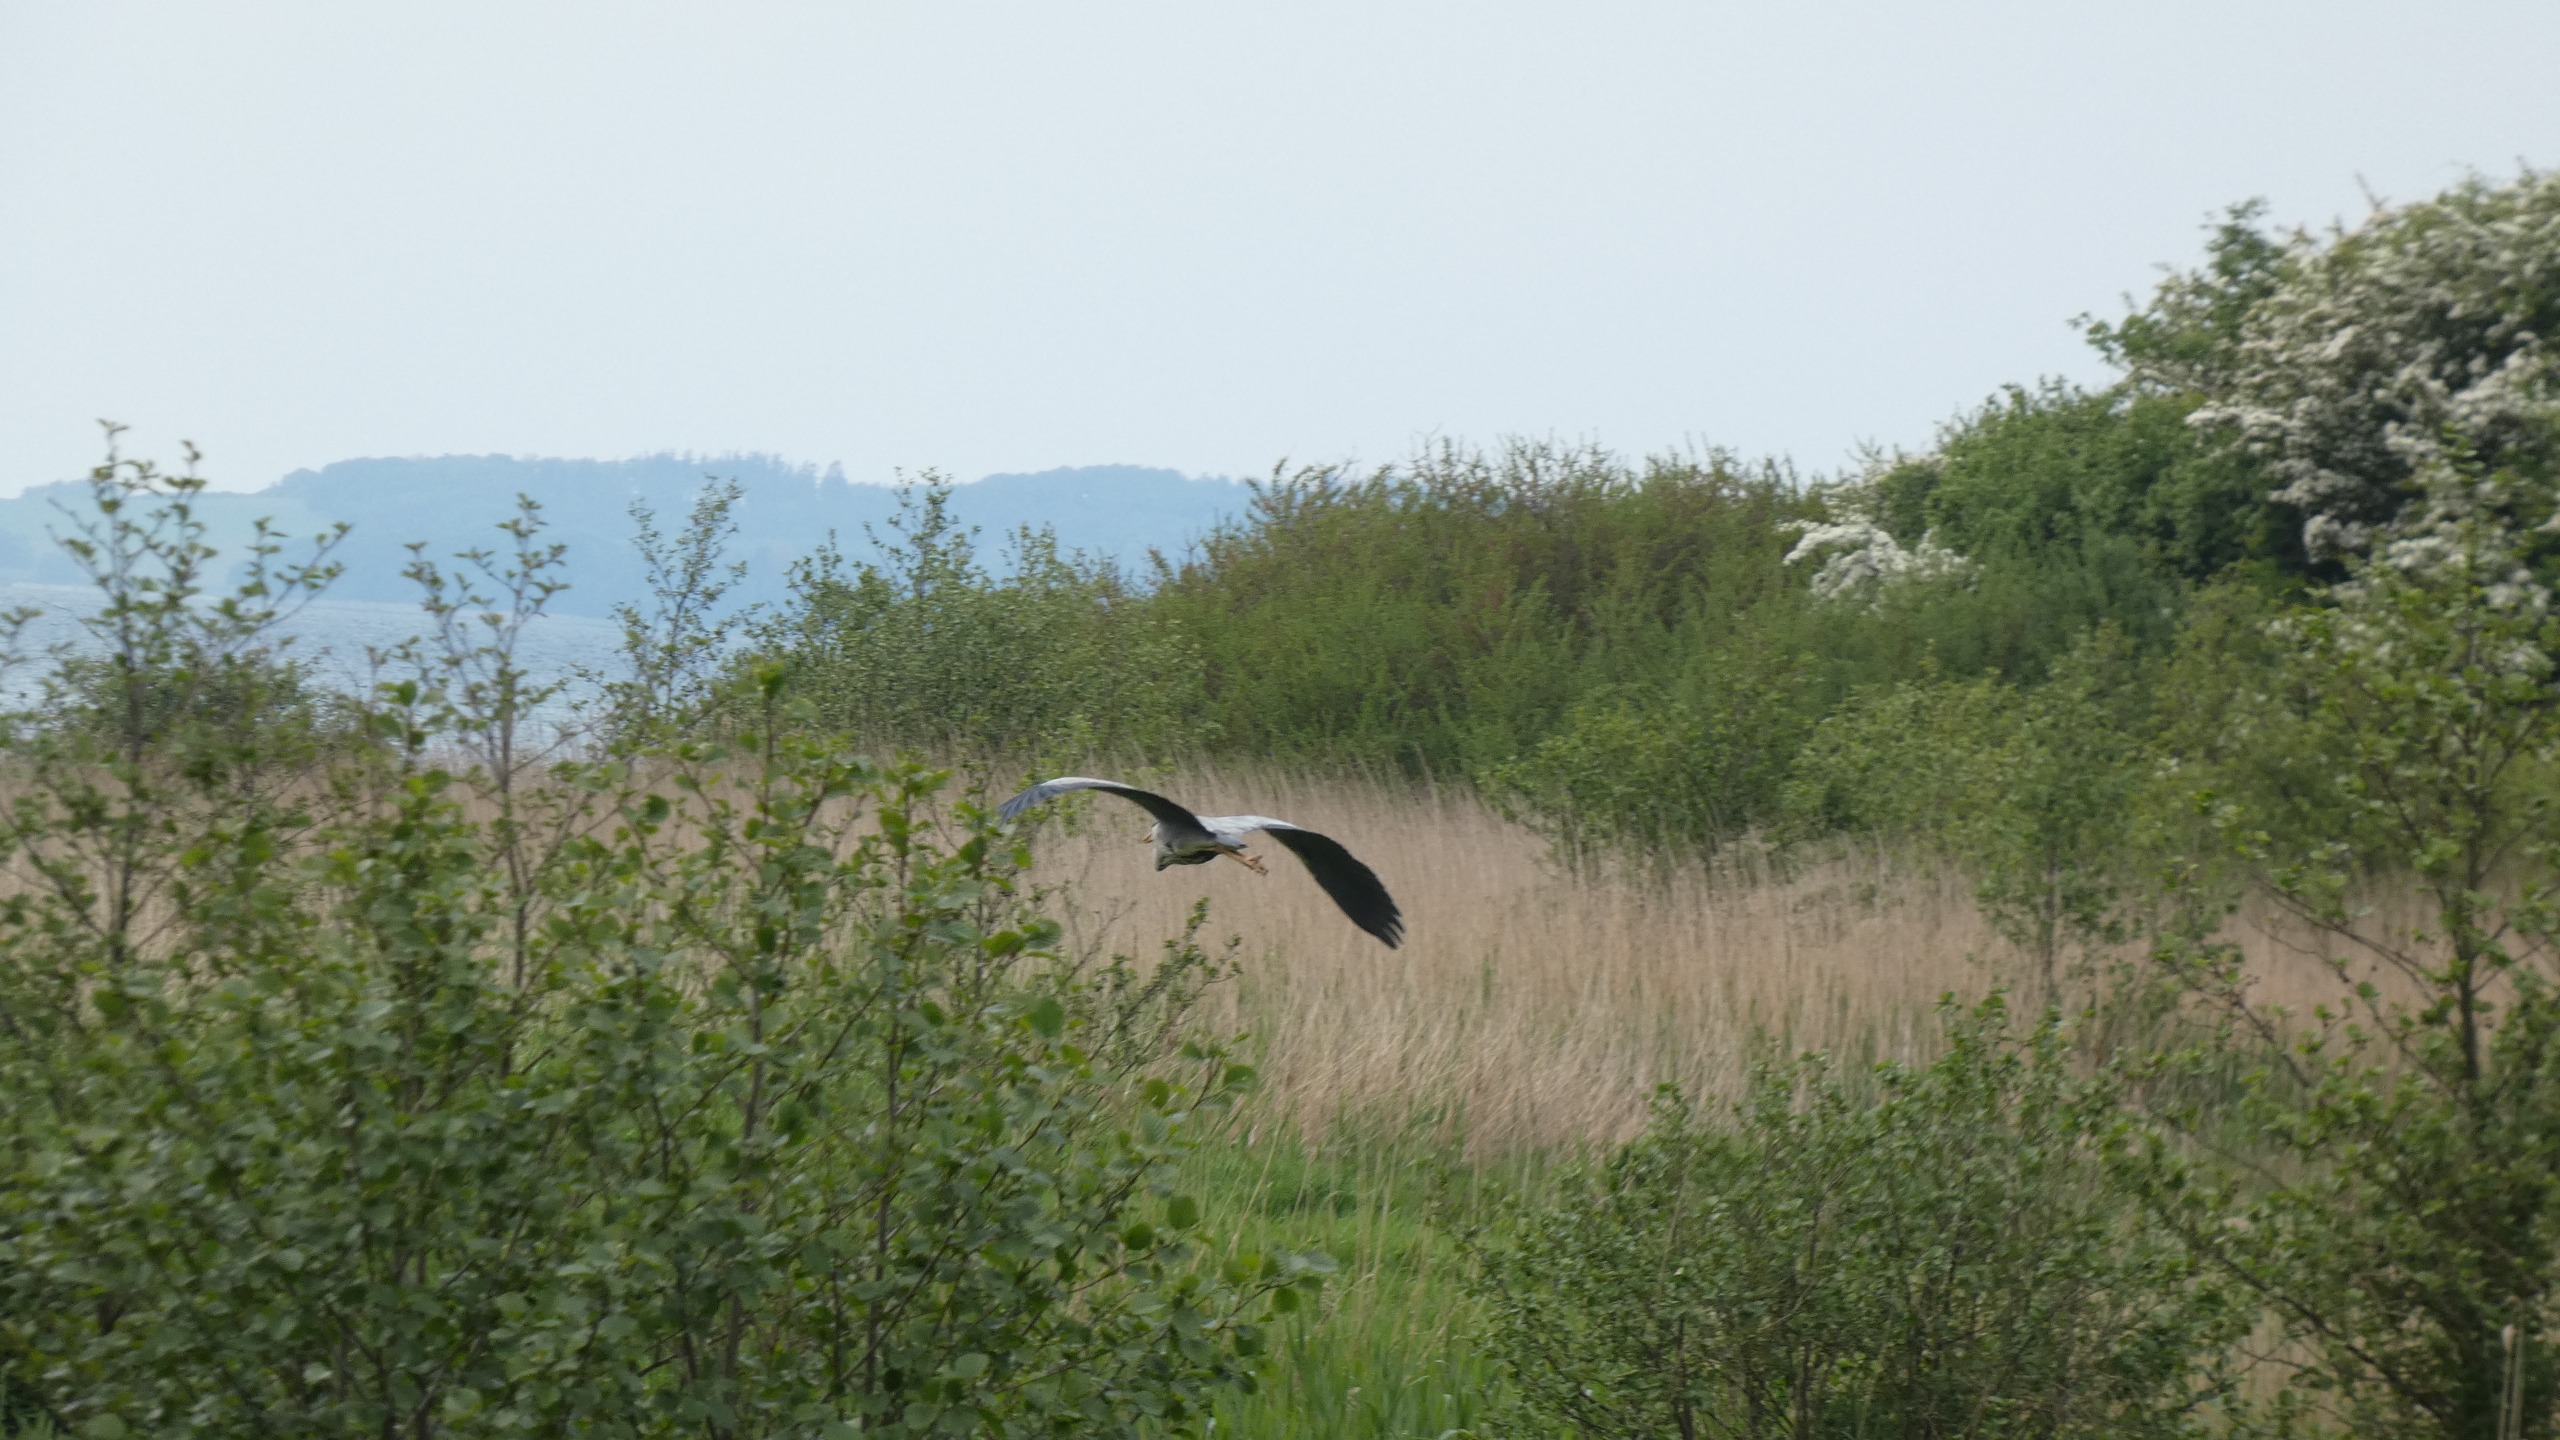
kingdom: Animalia
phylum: Chordata
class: Aves
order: Pelecaniformes
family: Ardeidae
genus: Ardea
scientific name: Ardea cinerea
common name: Fiskehejre
